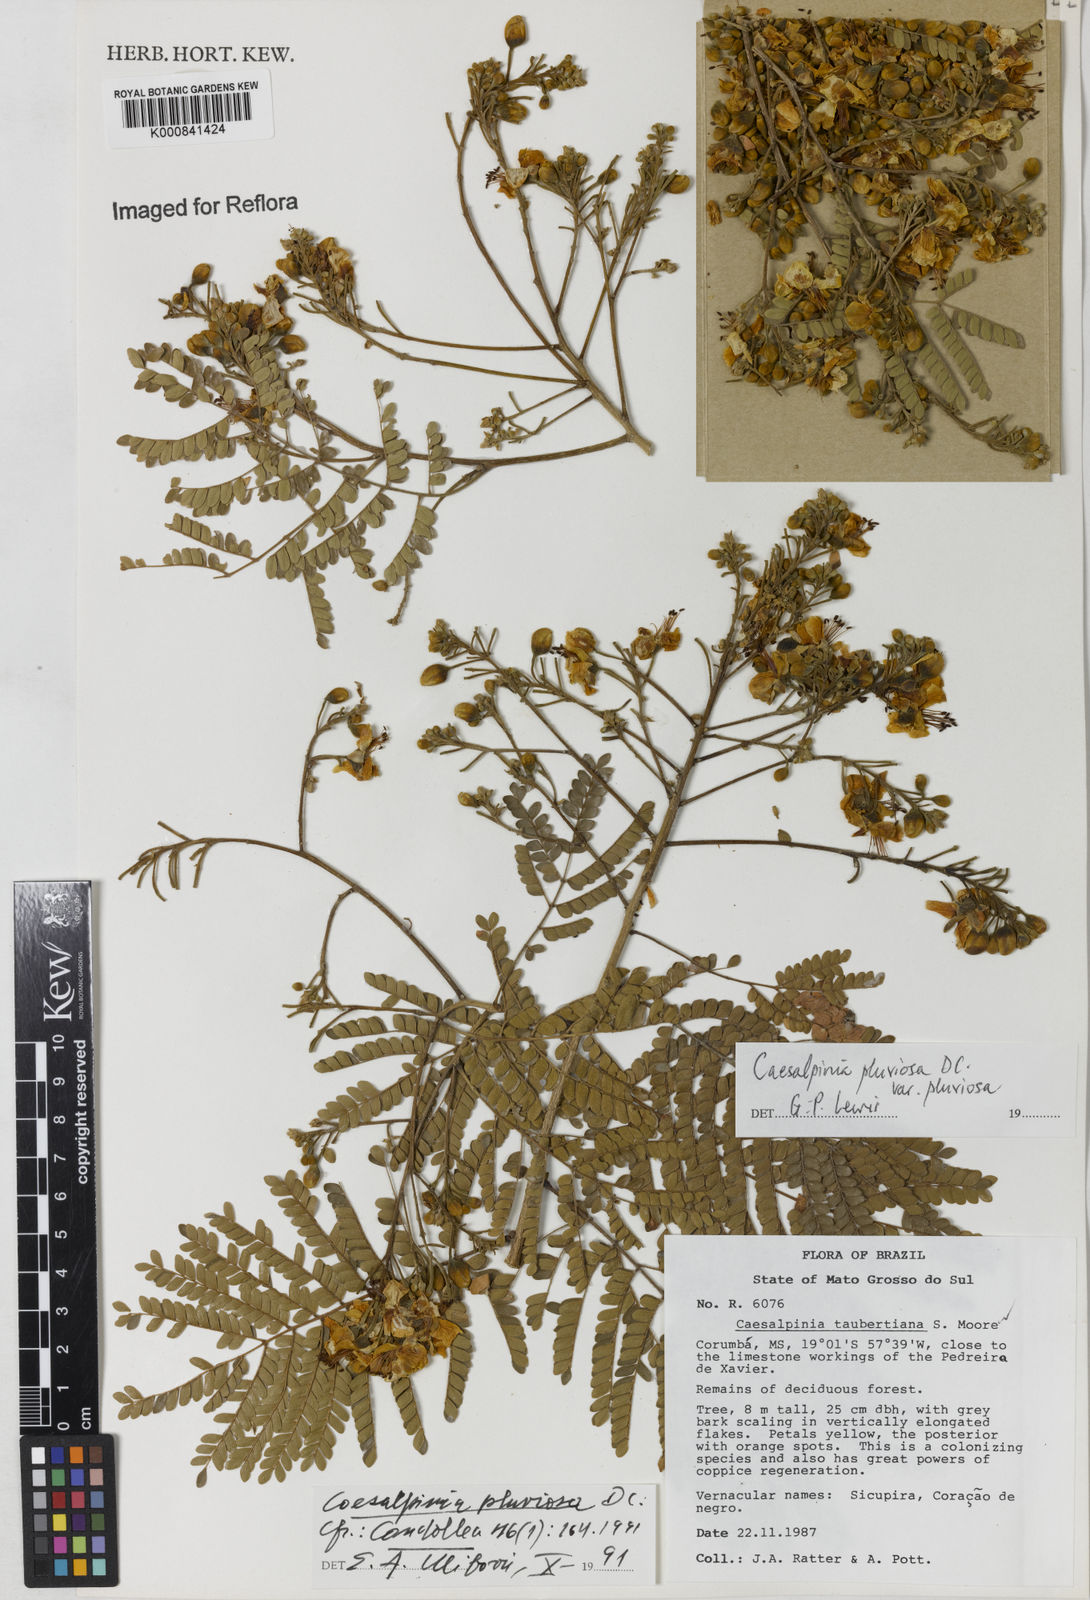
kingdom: Plantae
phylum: Tracheophyta
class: Magnoliopsida
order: Fabales
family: Fabaceae
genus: Cenostigma
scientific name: Cenostigma pluviosum
